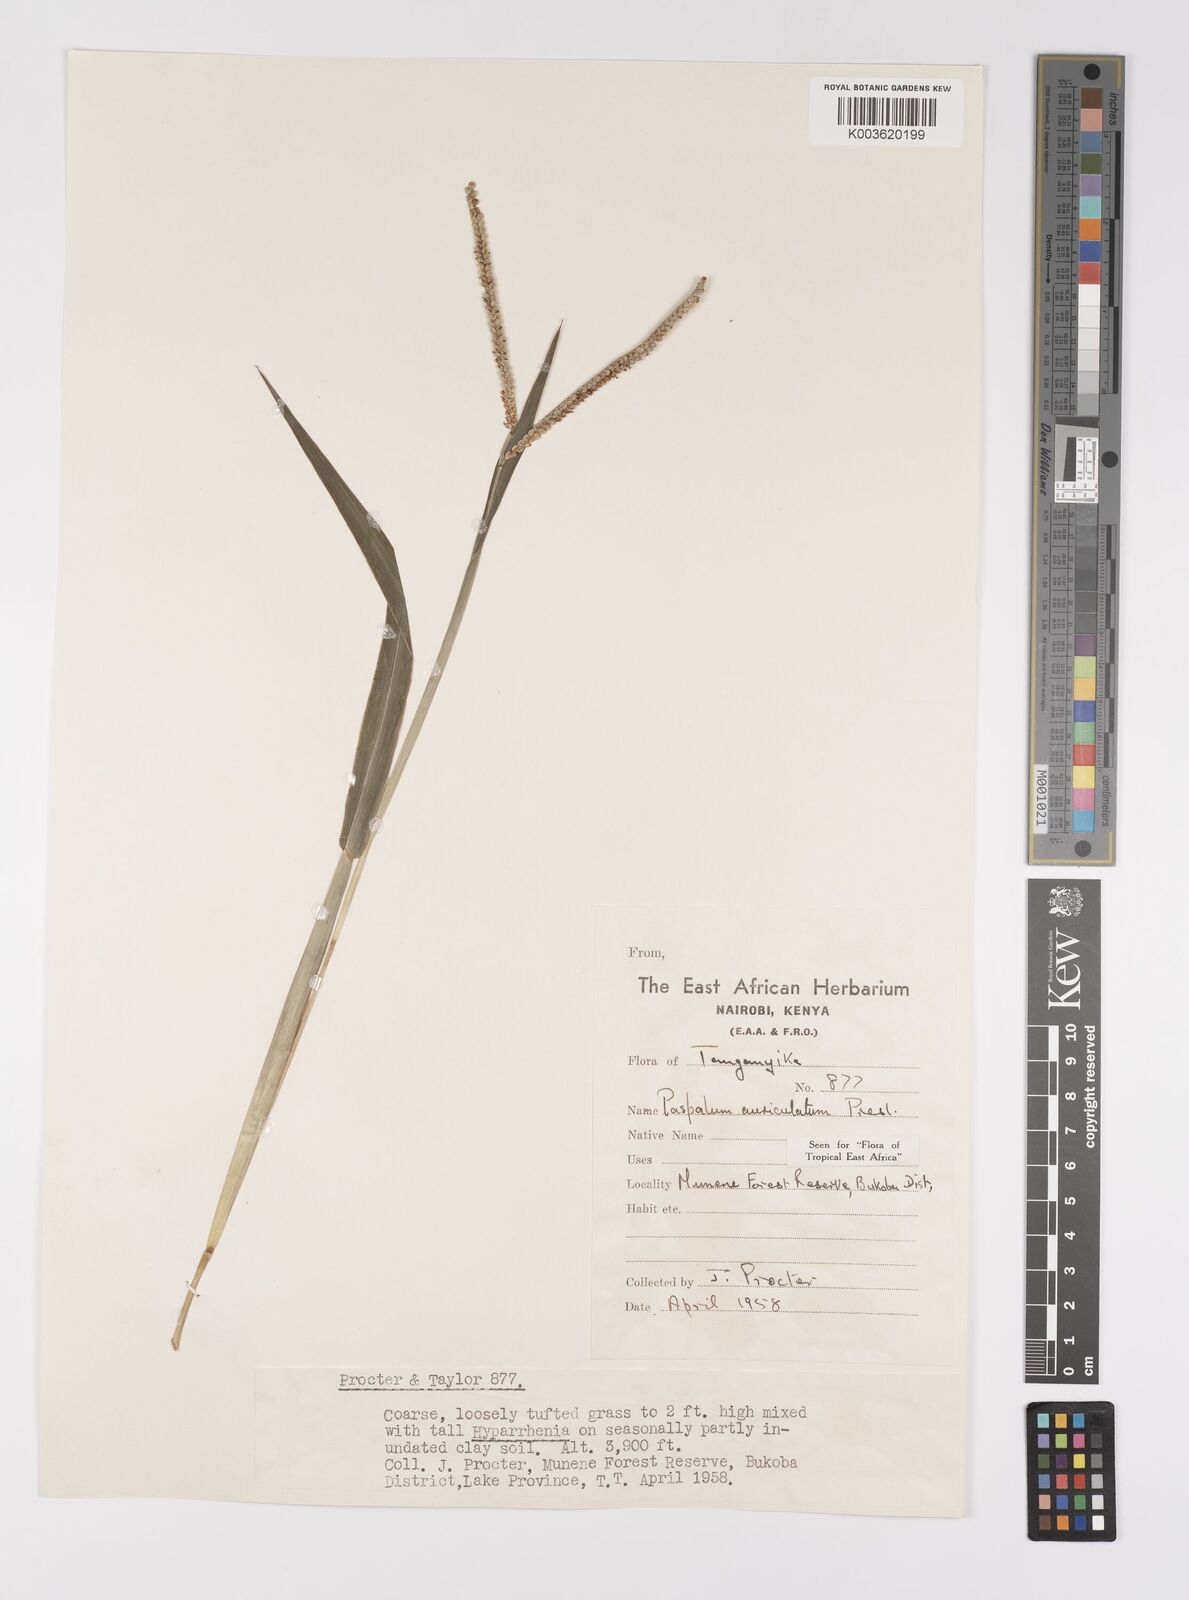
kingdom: Plantae
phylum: Tracheophyta
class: Liliopsida
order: Poales
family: Poaceae
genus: Paspalum
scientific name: Paspalum lamprocaryon
